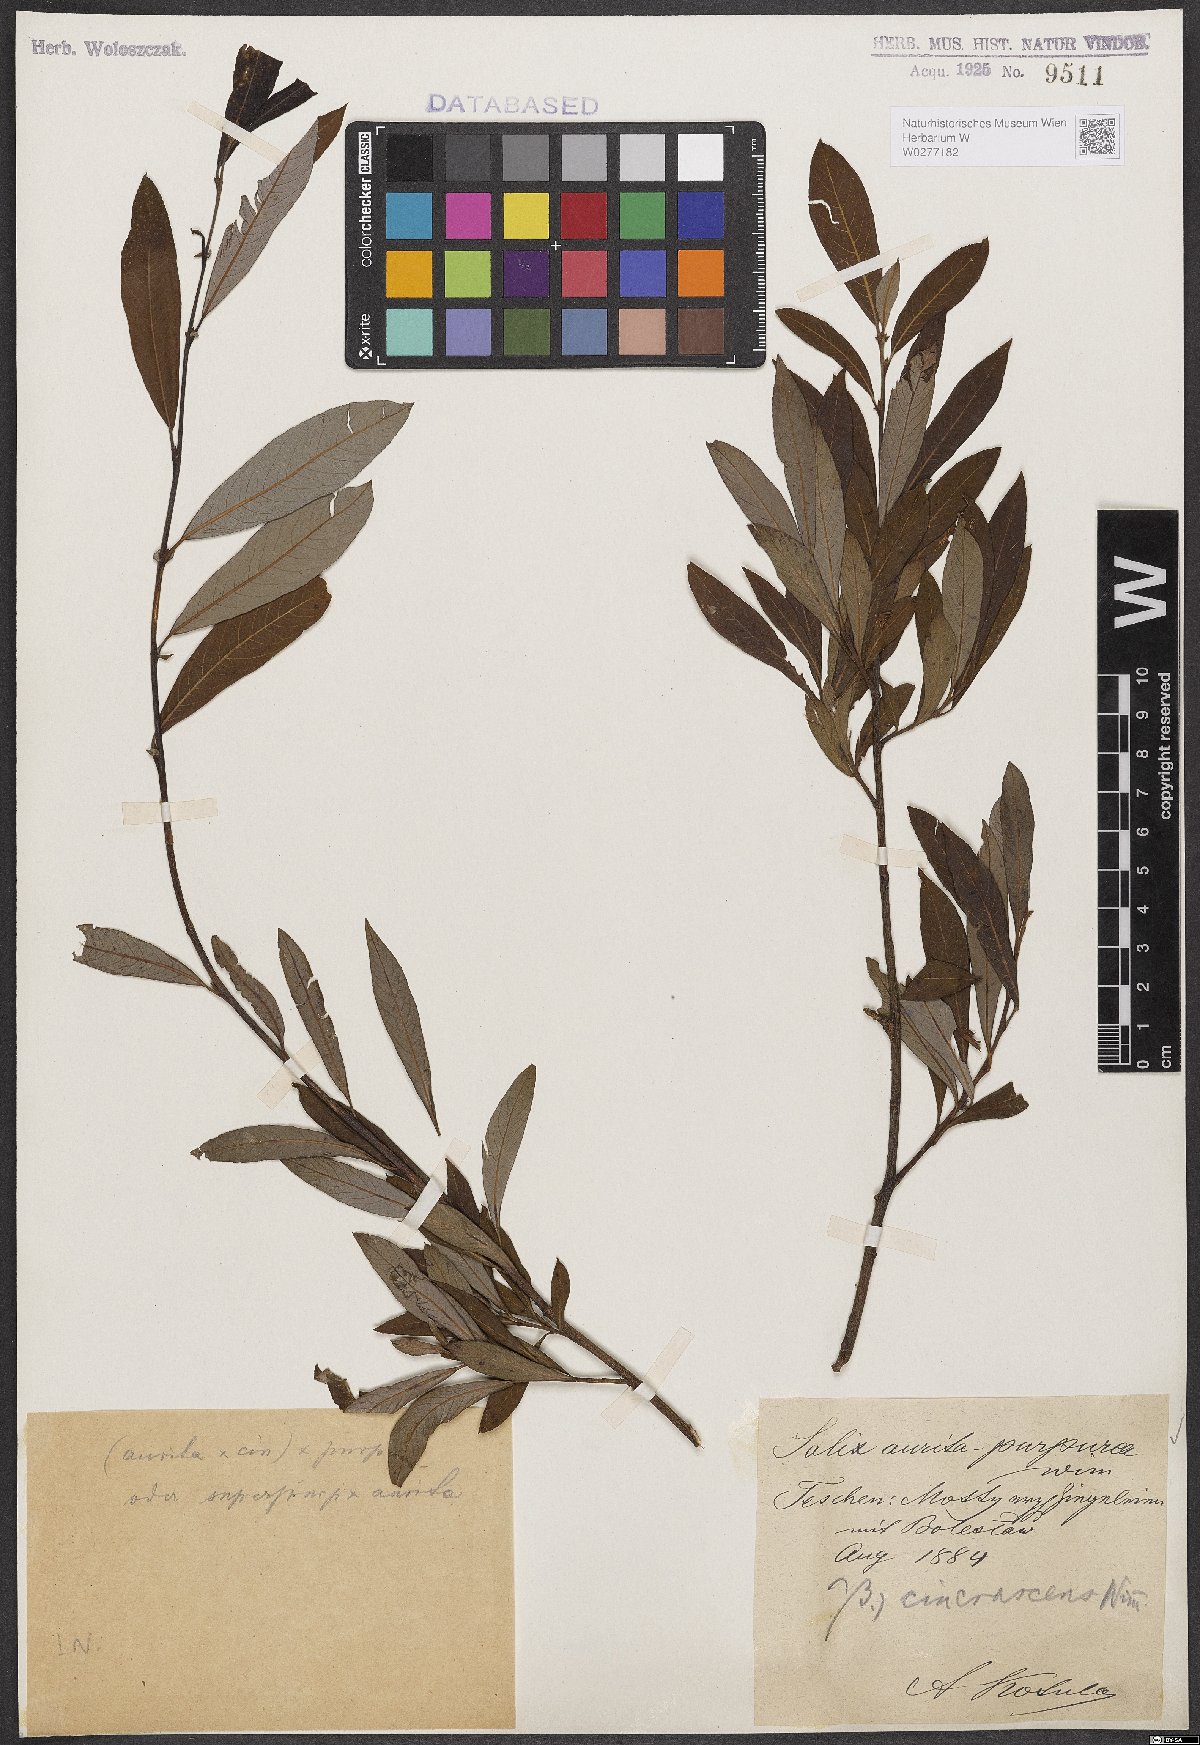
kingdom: Plantae
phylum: Tracheophyta
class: Magnoliopsida
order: Malpighiales
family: Salicaceae
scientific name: Salicaceae
